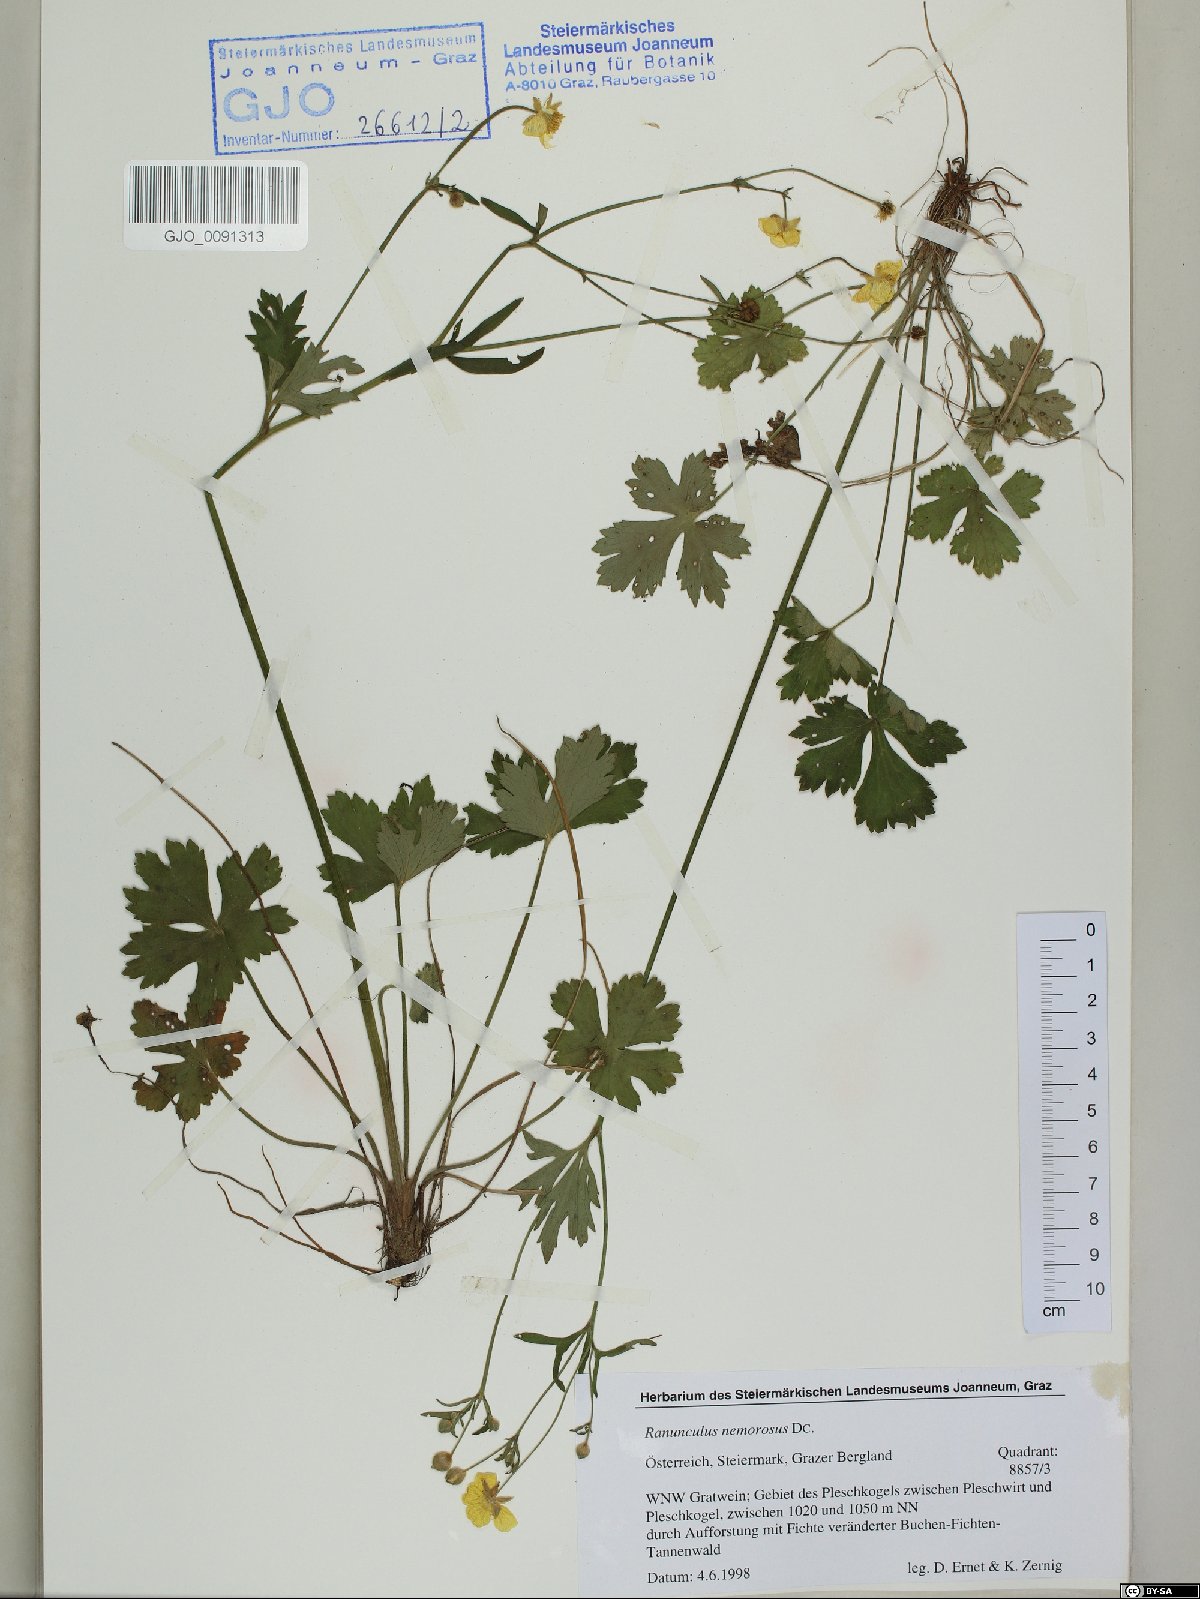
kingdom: Plantae
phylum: Tracheophyta
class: Magnoliopsida
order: Ranunculales
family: Ranunculaceae
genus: Ranunculus
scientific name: Ranunculus polyanthemos
